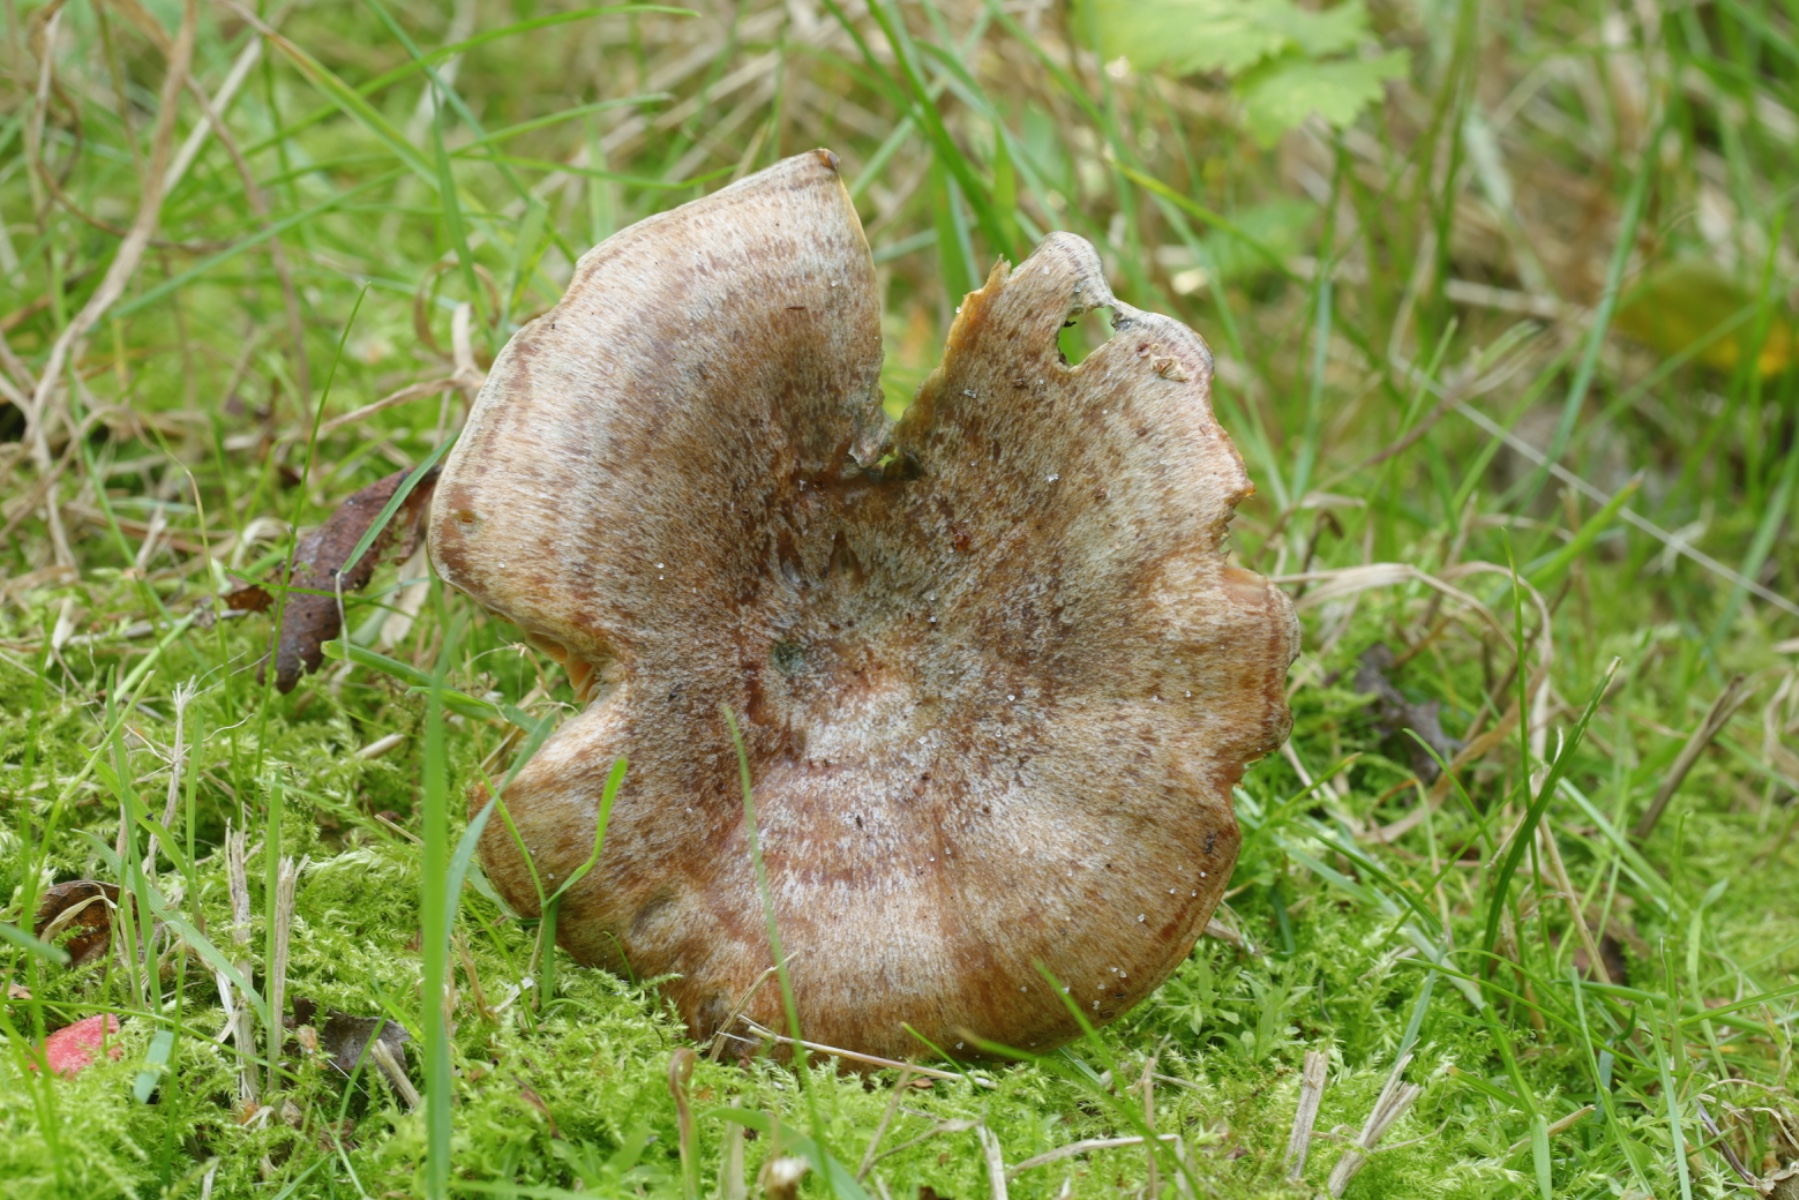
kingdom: Fungi
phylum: Basidiomycota
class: Agaricomycetes
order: Russulales
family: Russulaceae
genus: Lactarius
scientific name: Lactarius quieticolor
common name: tvefarvet mælkehat
